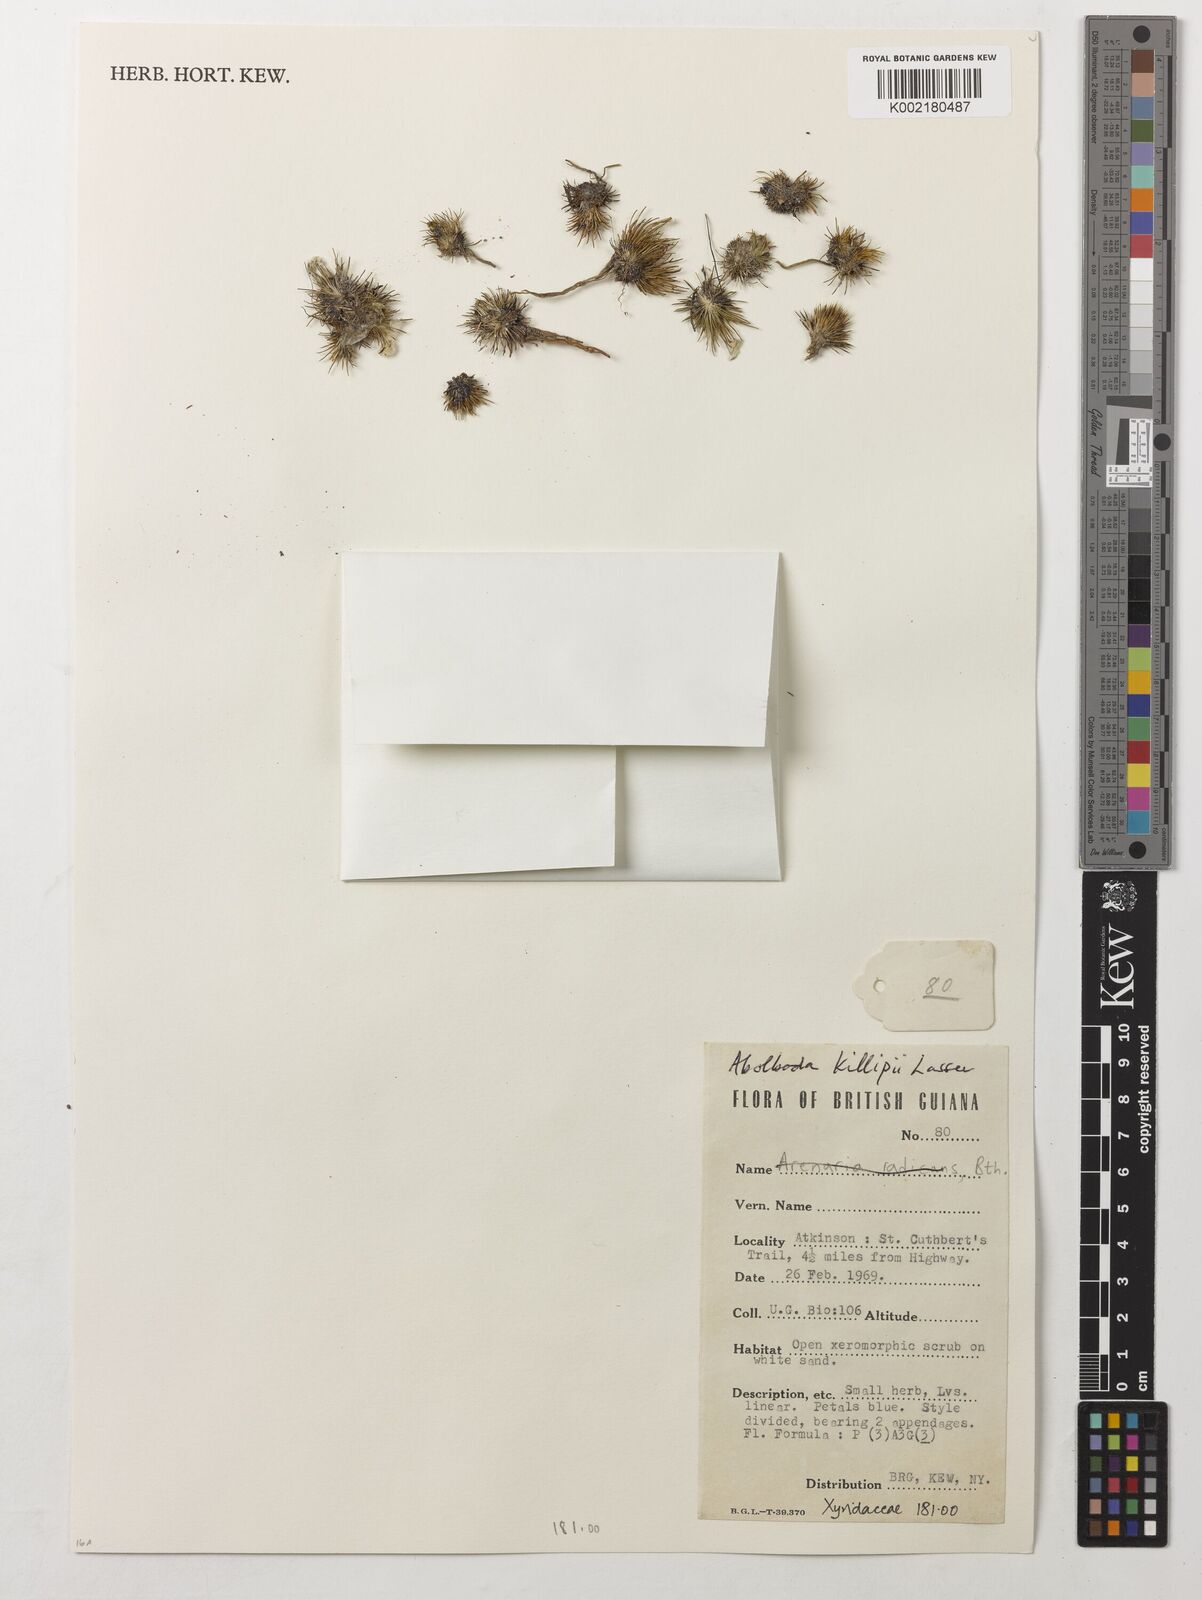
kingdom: Plantae
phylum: Tracheophyta
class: Liliopsida
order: Poales
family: Xyridaceae
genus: Abolboda
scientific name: Abolboda killipii
